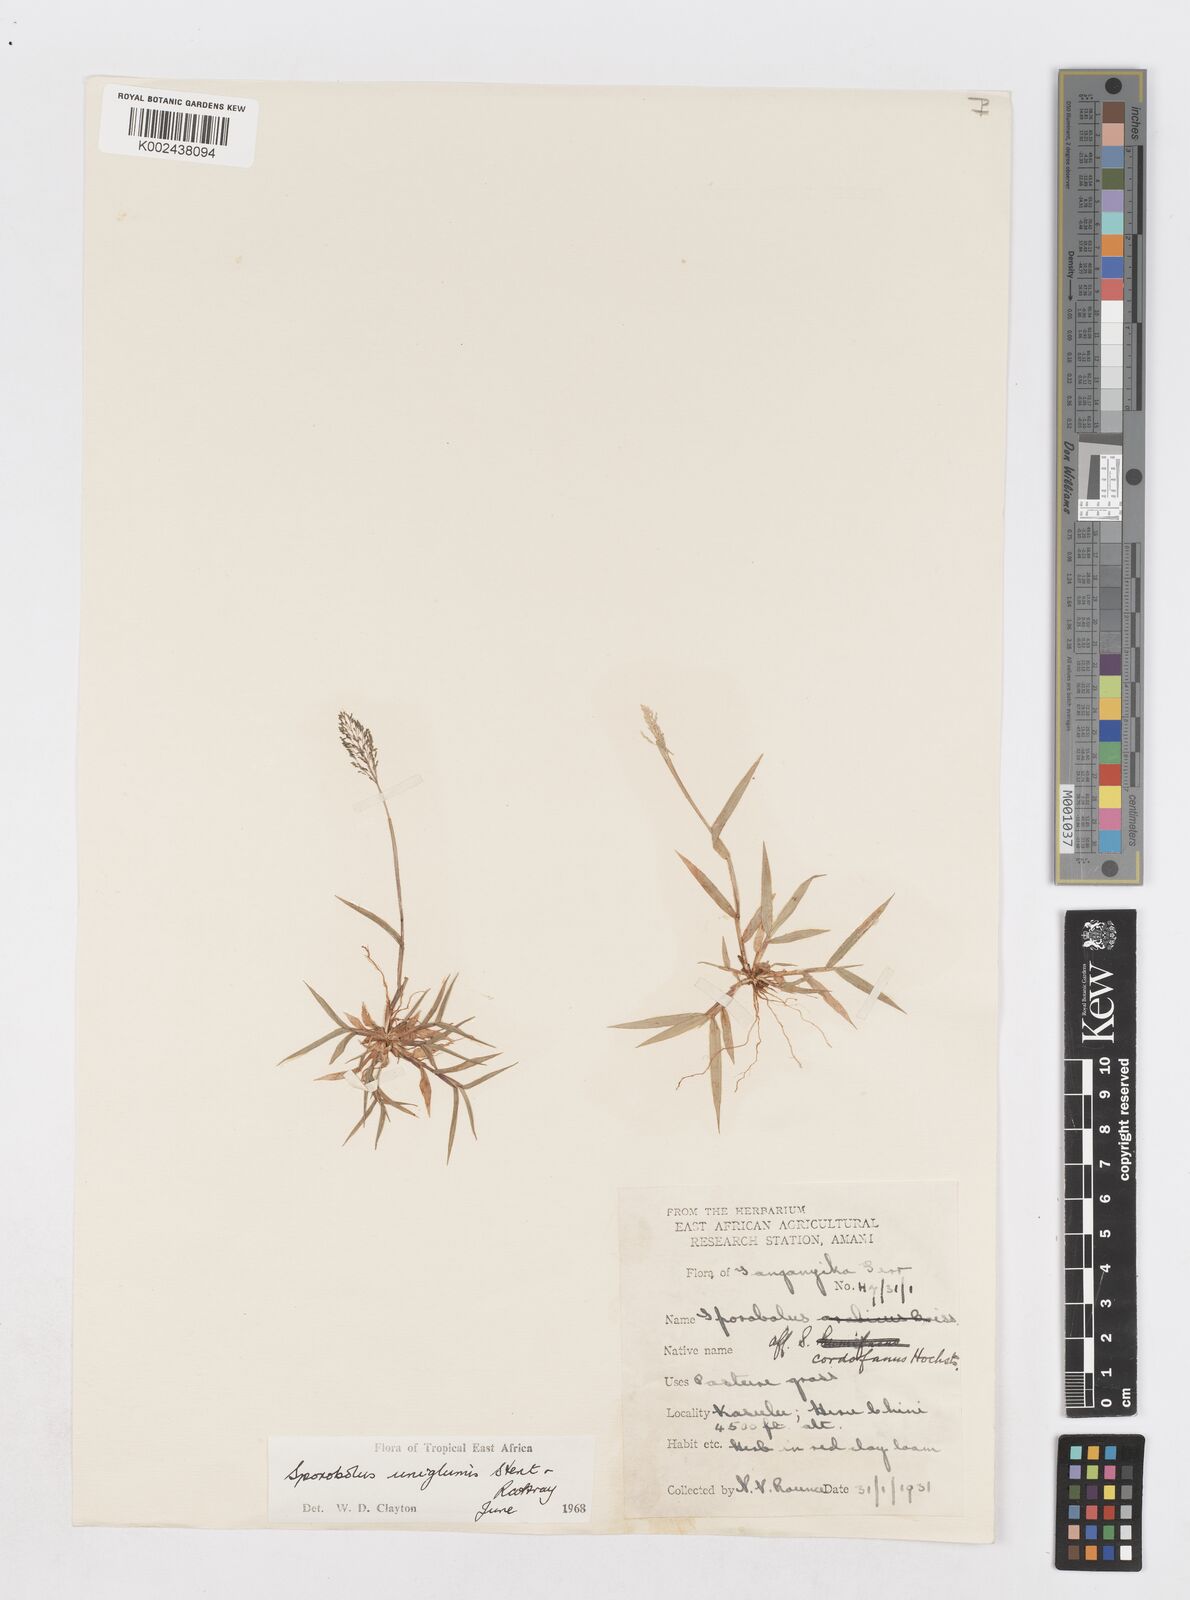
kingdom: Plantae
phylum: Tracheophyta
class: Liliopsida
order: Poales
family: Poaceae
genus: Sporobolus
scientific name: Sporobolus uniglumis
